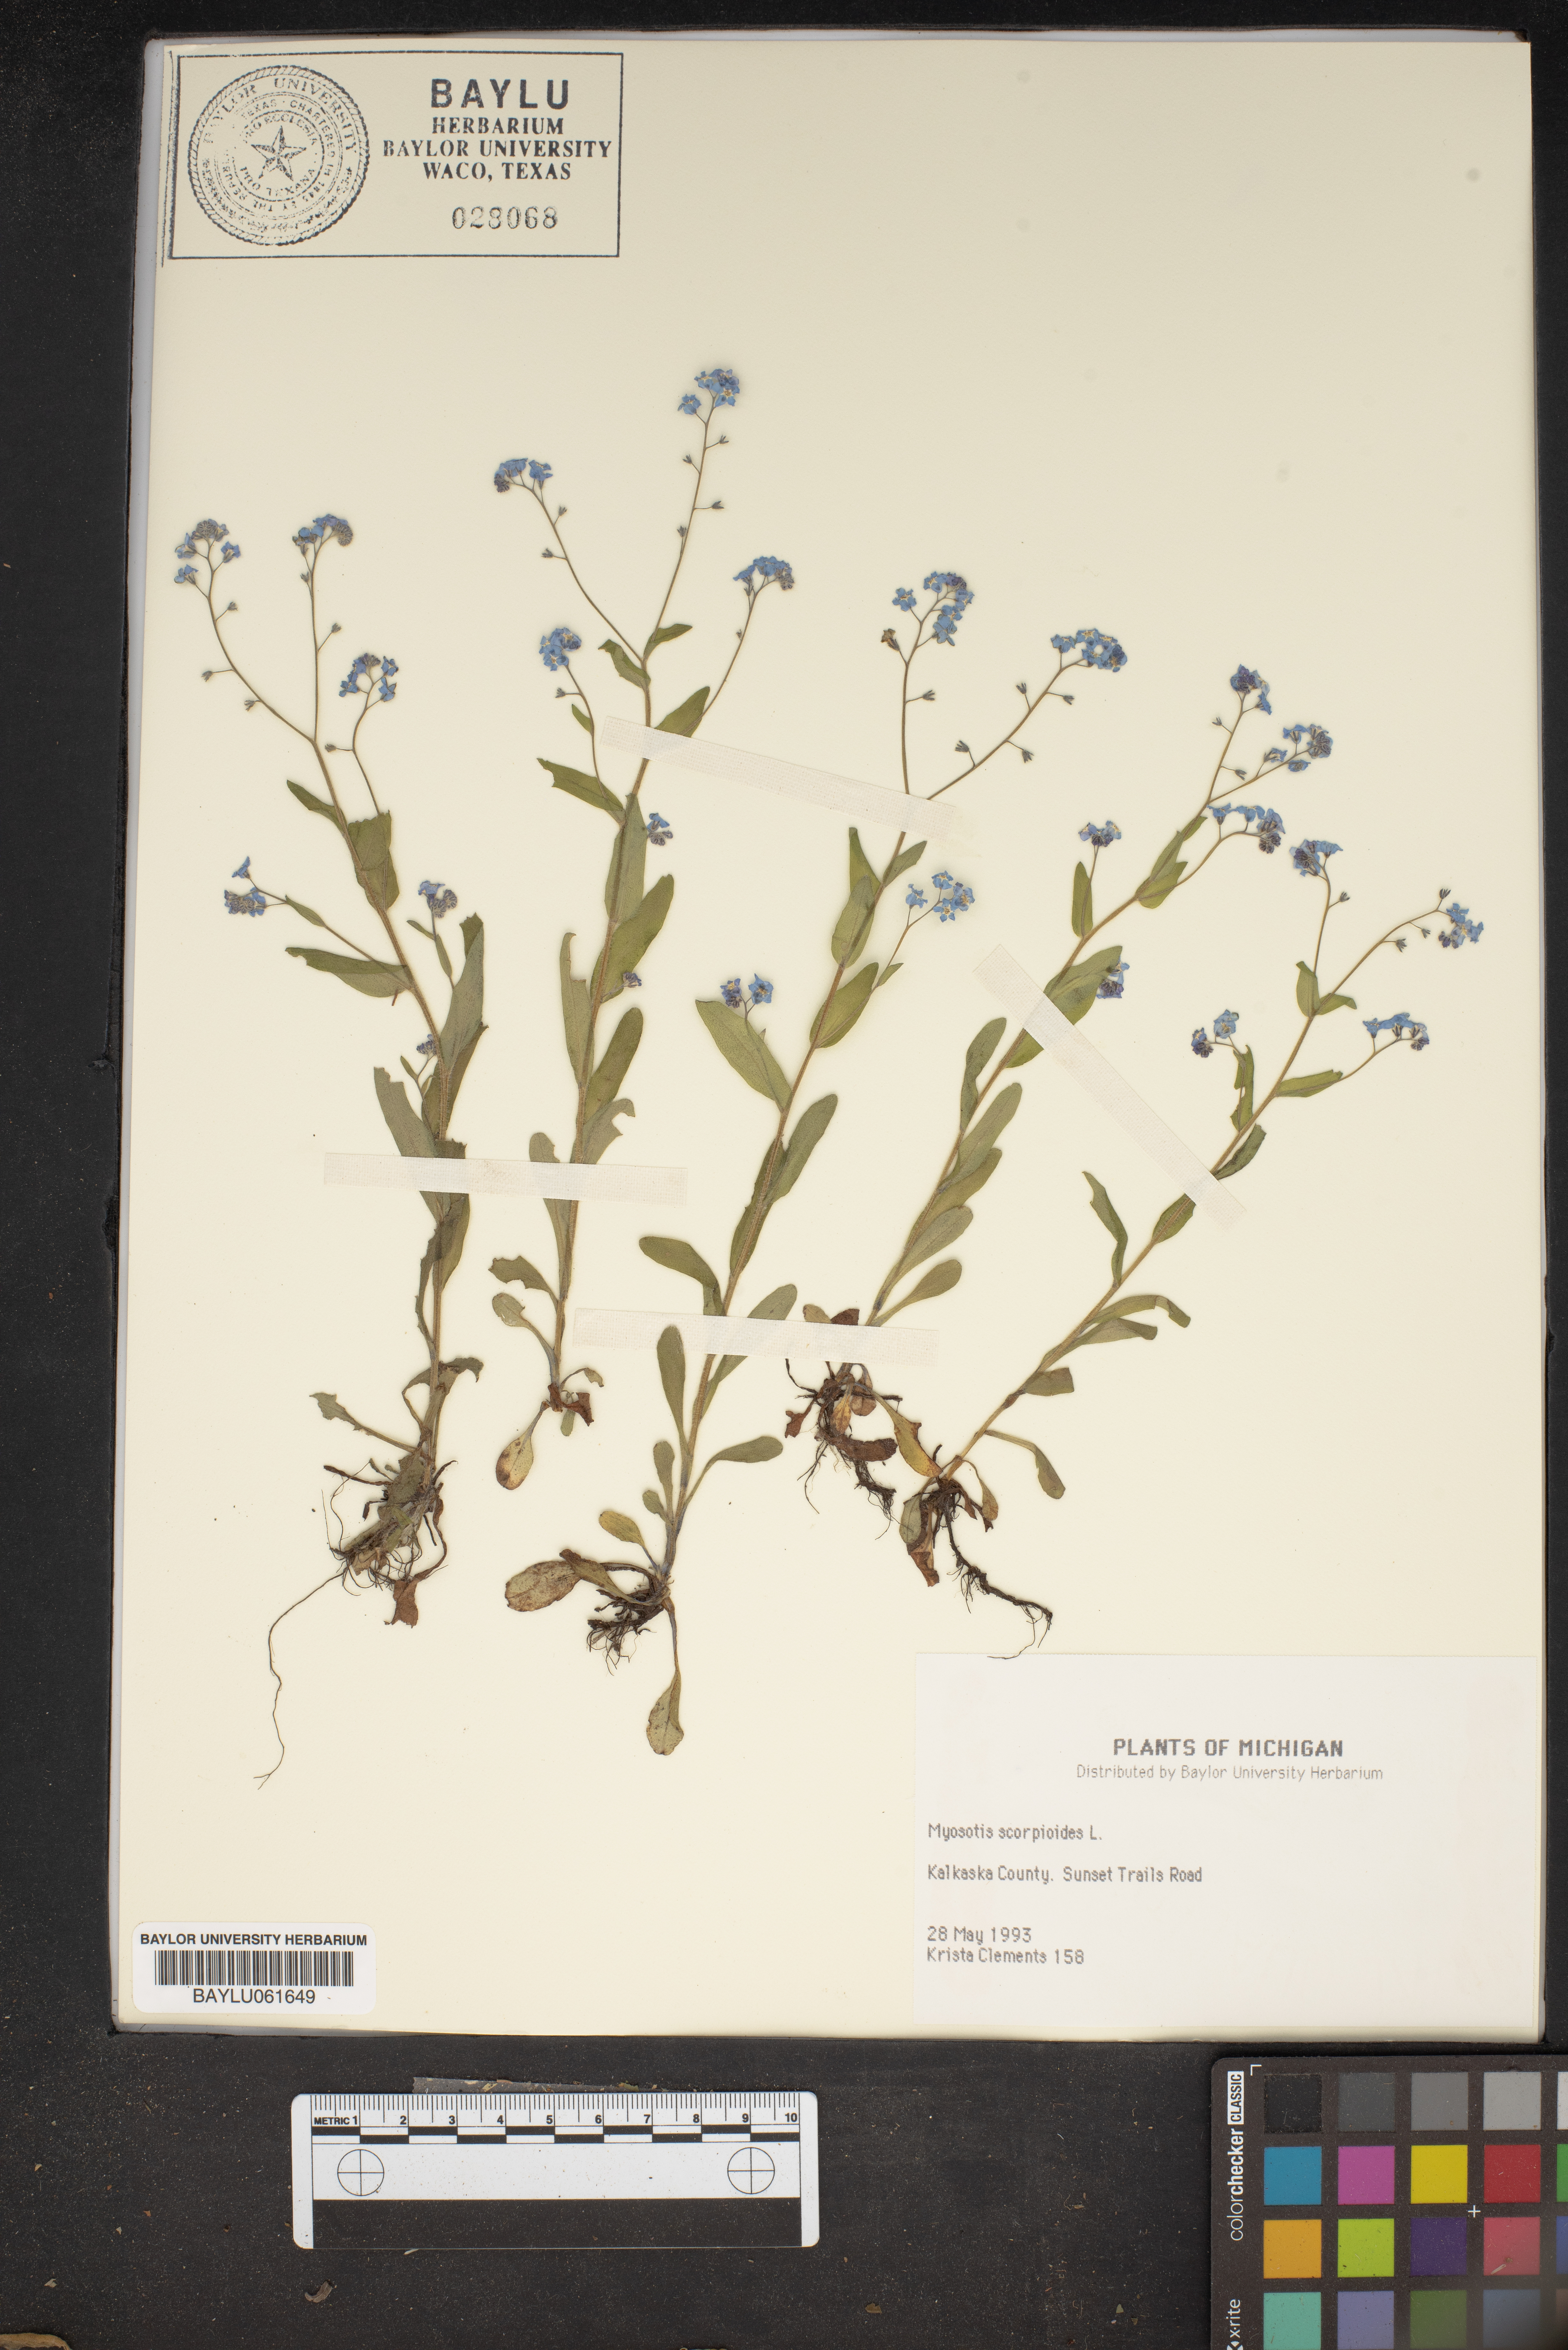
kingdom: Plantae
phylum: Tracheophyta
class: Magnoliopsida
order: Boraginales
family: Boraginaceae
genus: Myosotis
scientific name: Myosotis scorpioides
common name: Water forget-me-not
